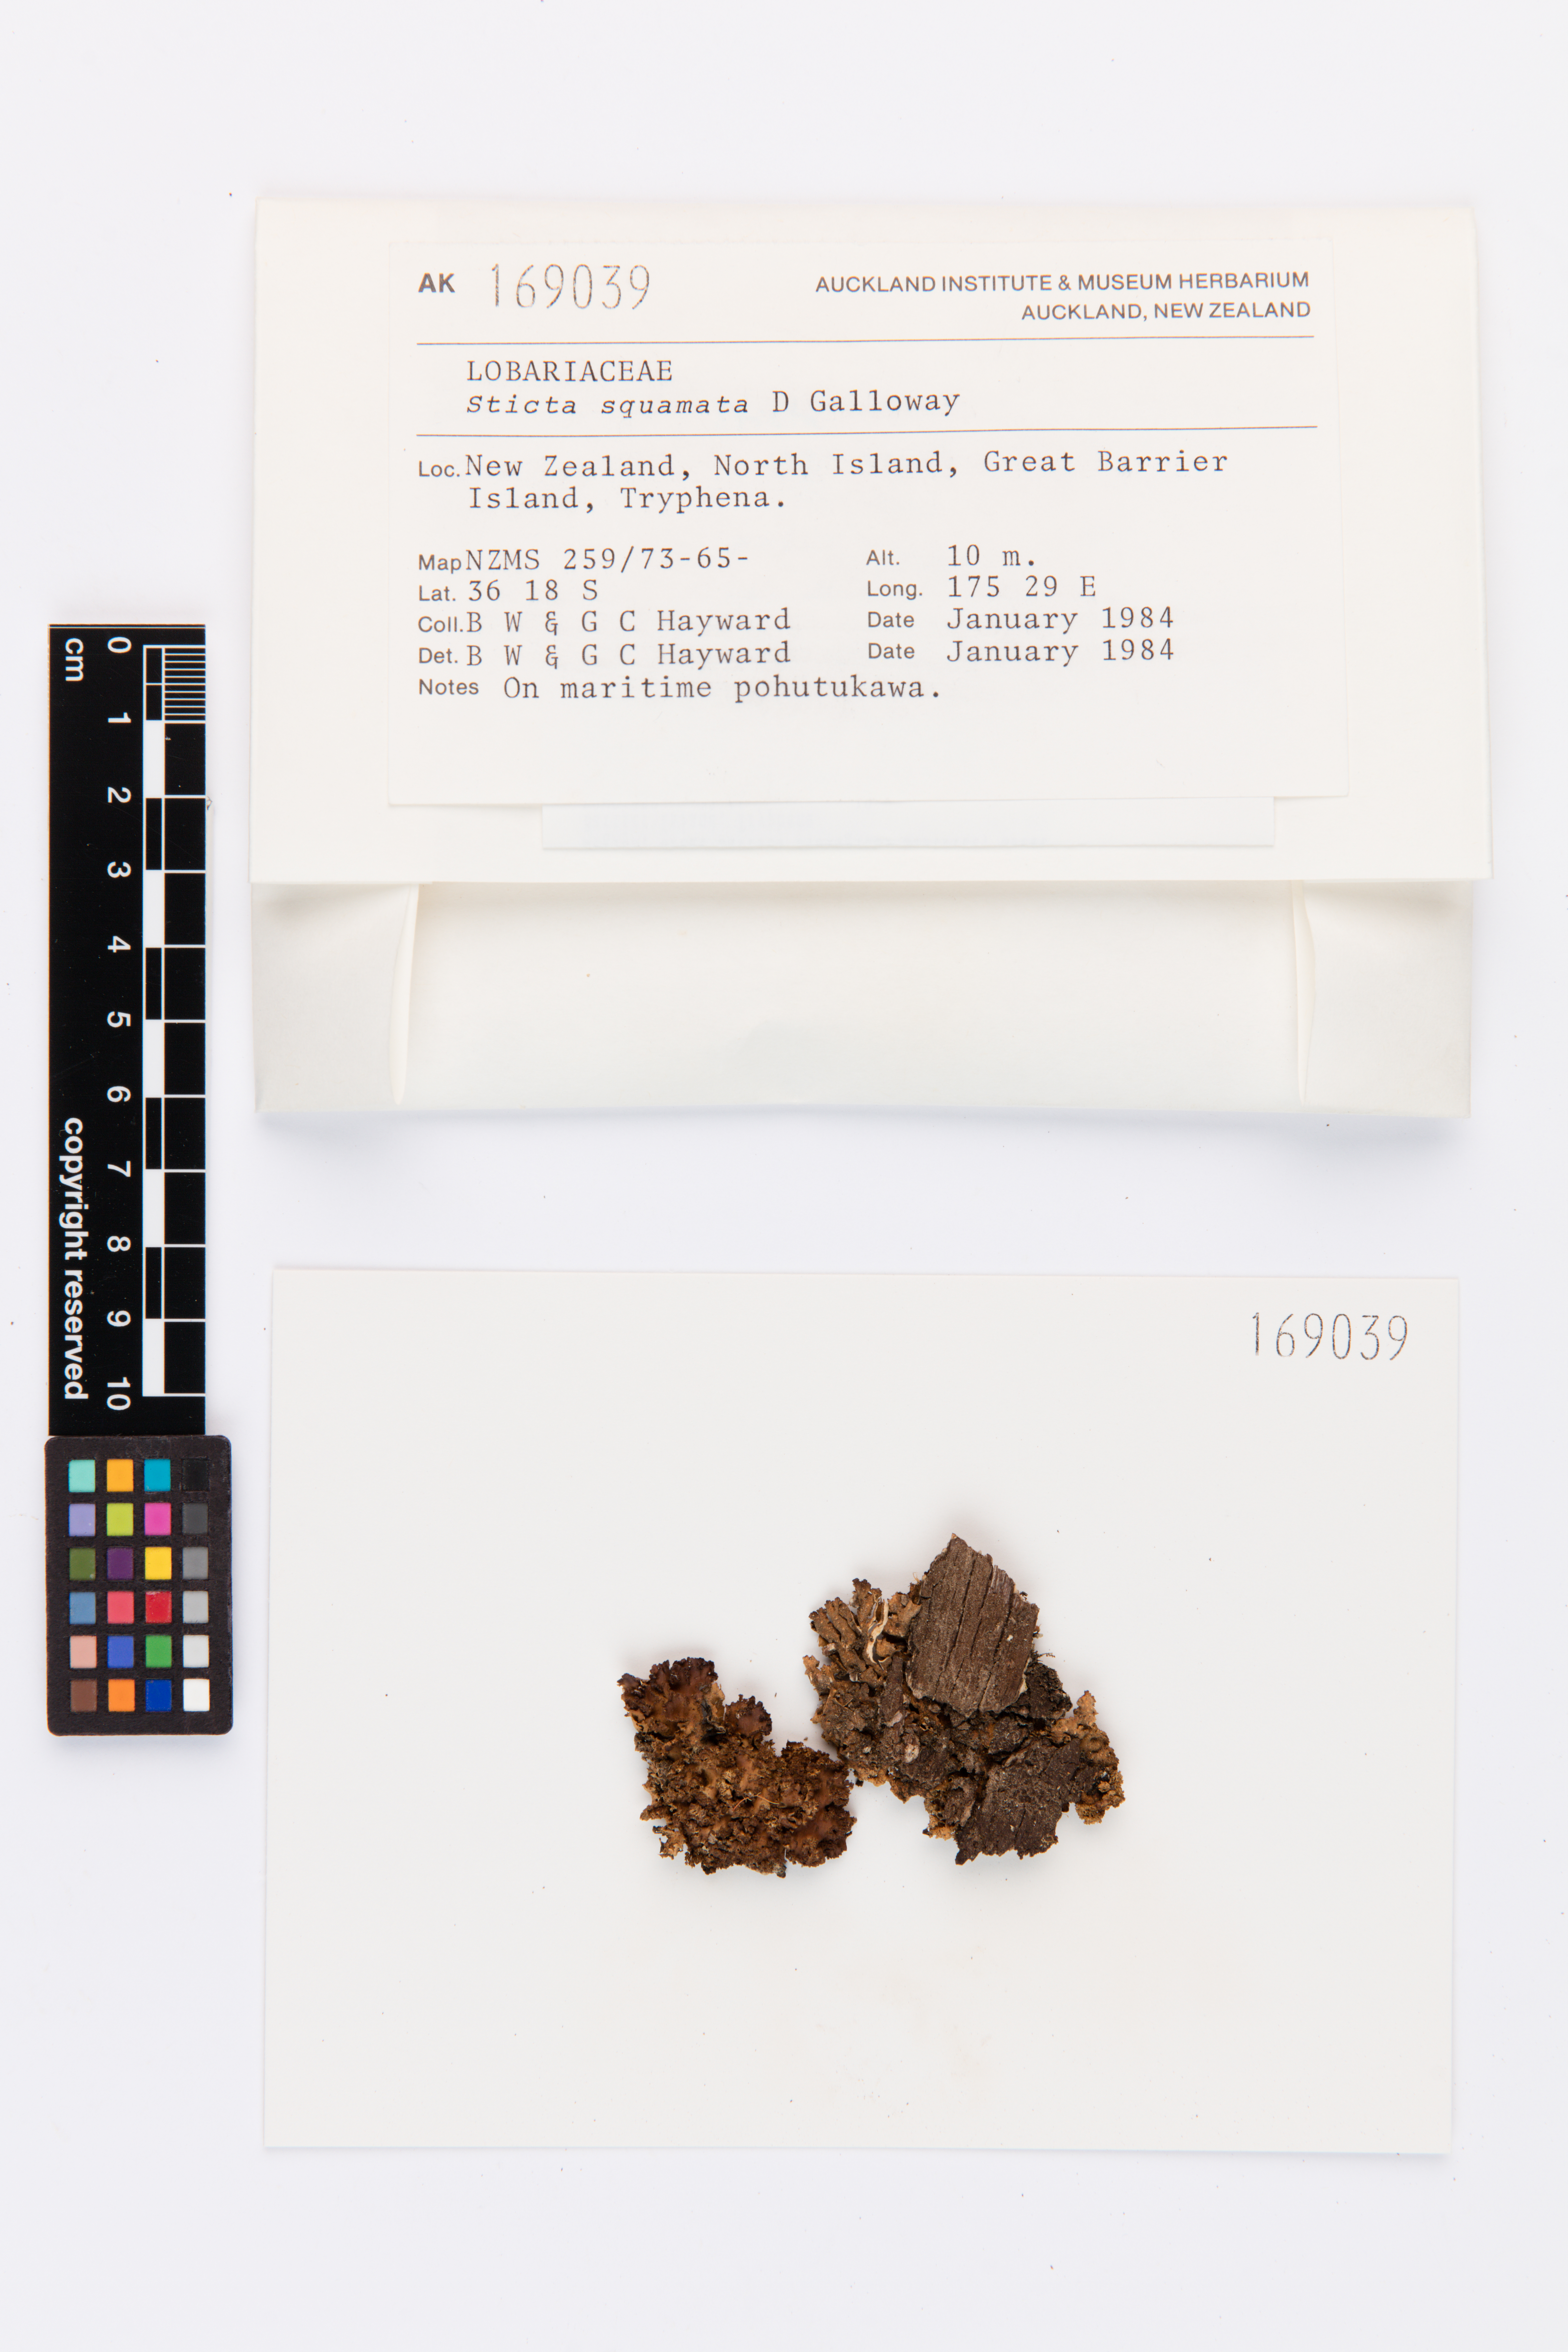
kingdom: Fungi
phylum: Ascomycota
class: Lecanoromycetes
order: Peltigerales
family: Lobariaceae
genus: Sticta
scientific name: Sticta squamata
